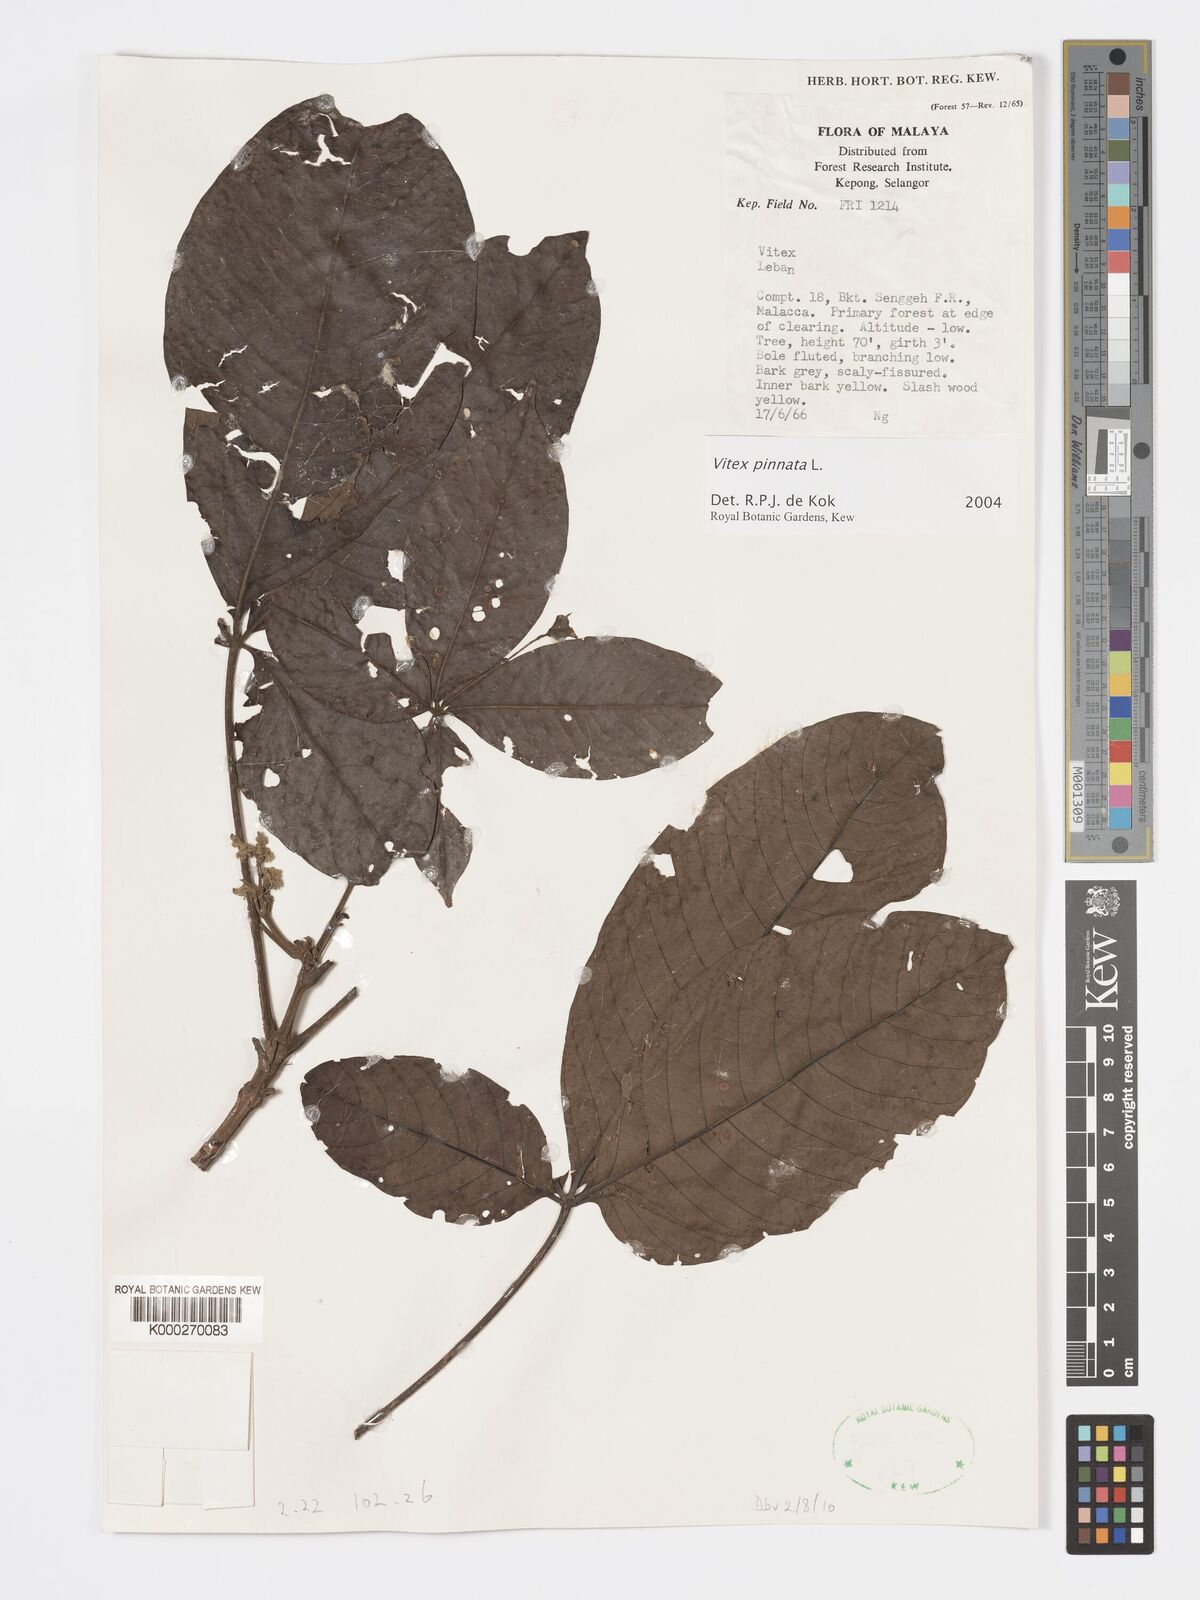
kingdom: Plantae
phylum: Tracheophyta
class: Magnoliopsida
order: Lamiales
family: Lamiaceae
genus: Vitex
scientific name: Vitex pinnata
